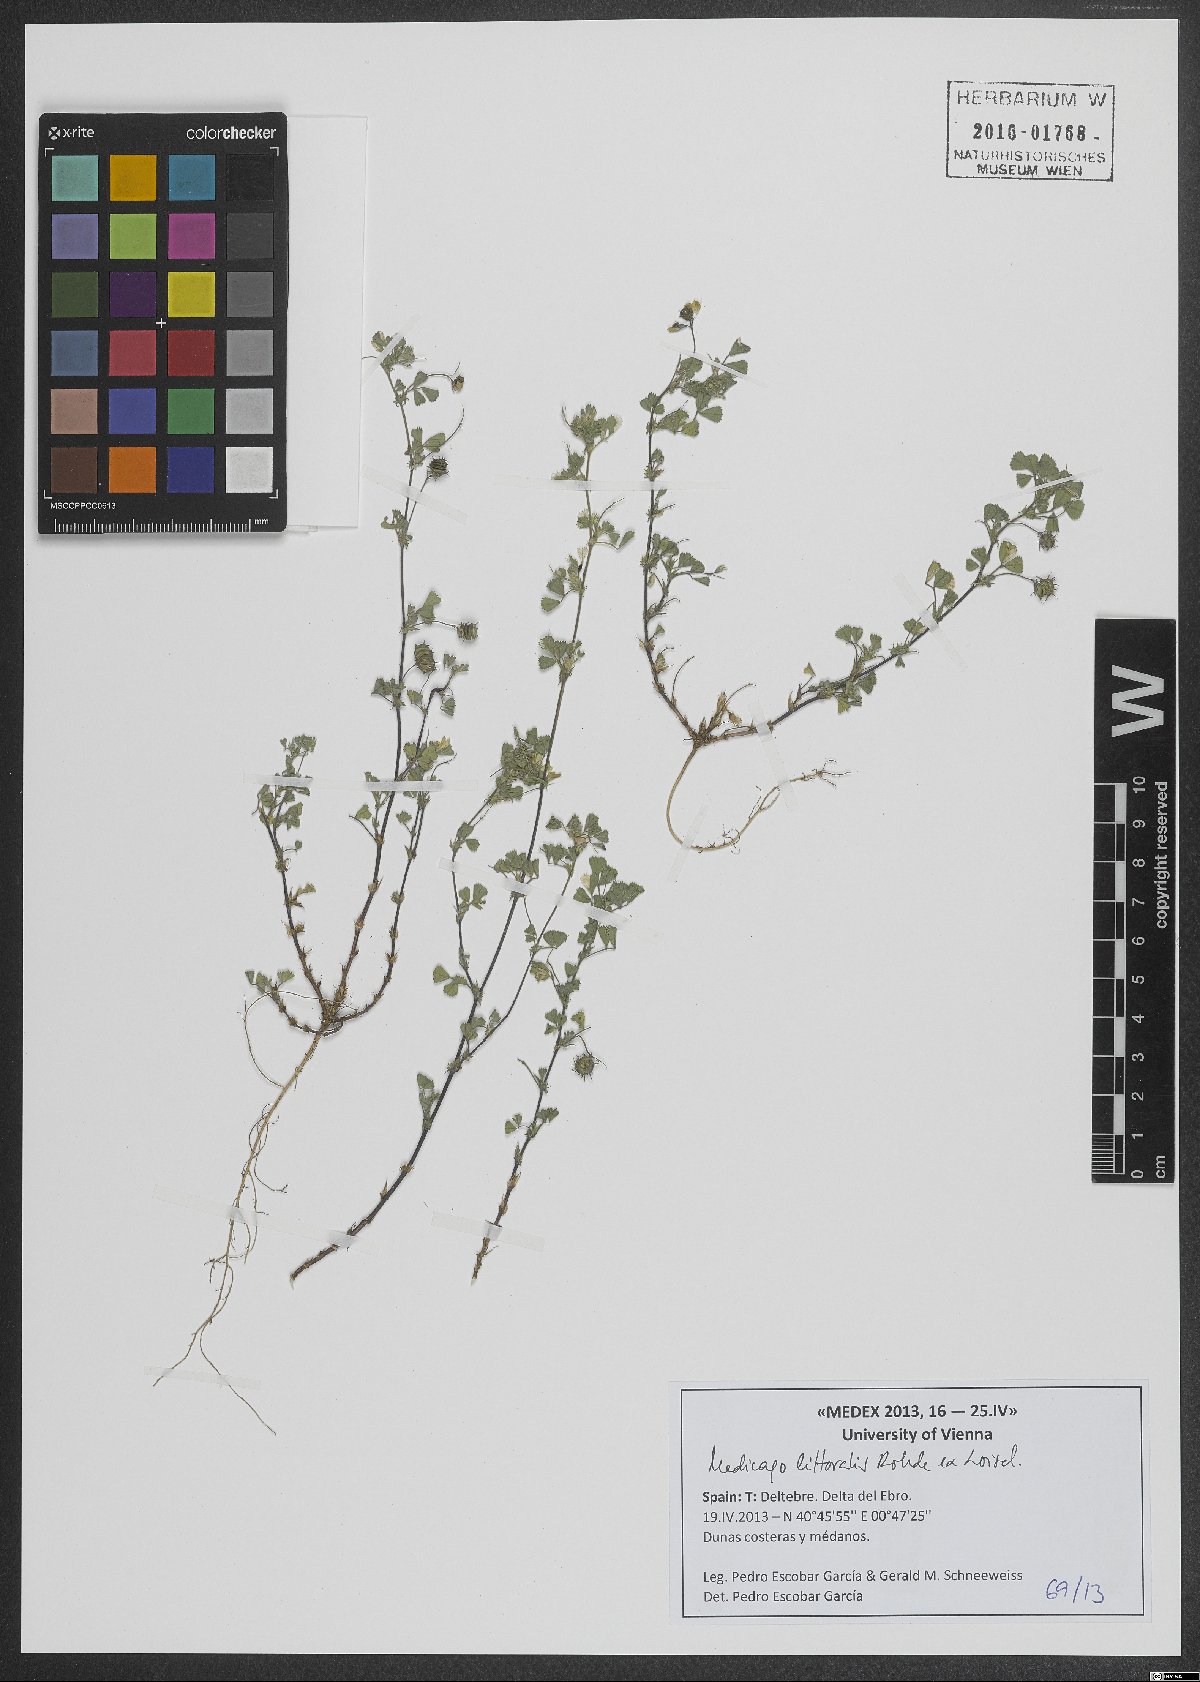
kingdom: Plantae
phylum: Tracheophyta
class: Magnoliopsida
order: Fabales
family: Fabaceae
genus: Medicago
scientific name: Medicago littoralis
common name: Shore medick
